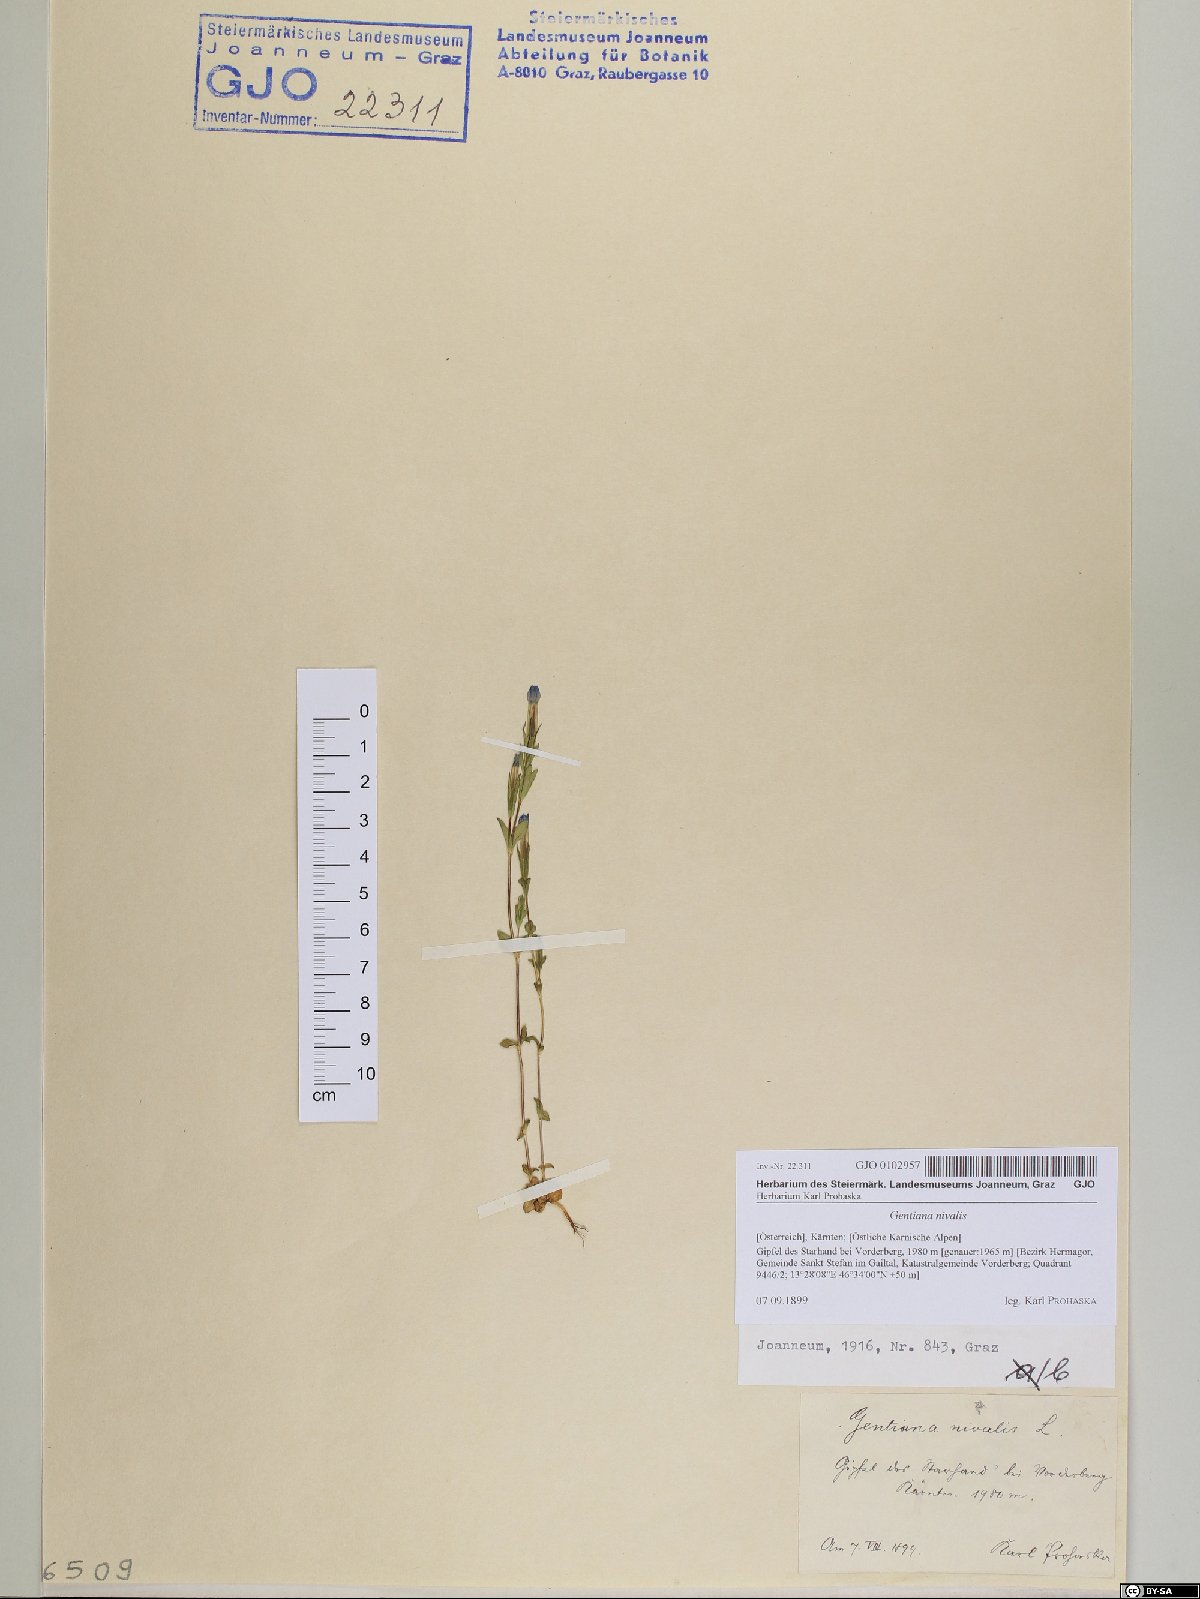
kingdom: Plantae
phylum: Tracheophyta
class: Magnoliopsida
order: Gentianales
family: Gentianaceae
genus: Gentiana
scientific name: Gentiana nivalis
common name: Alpine gentian
